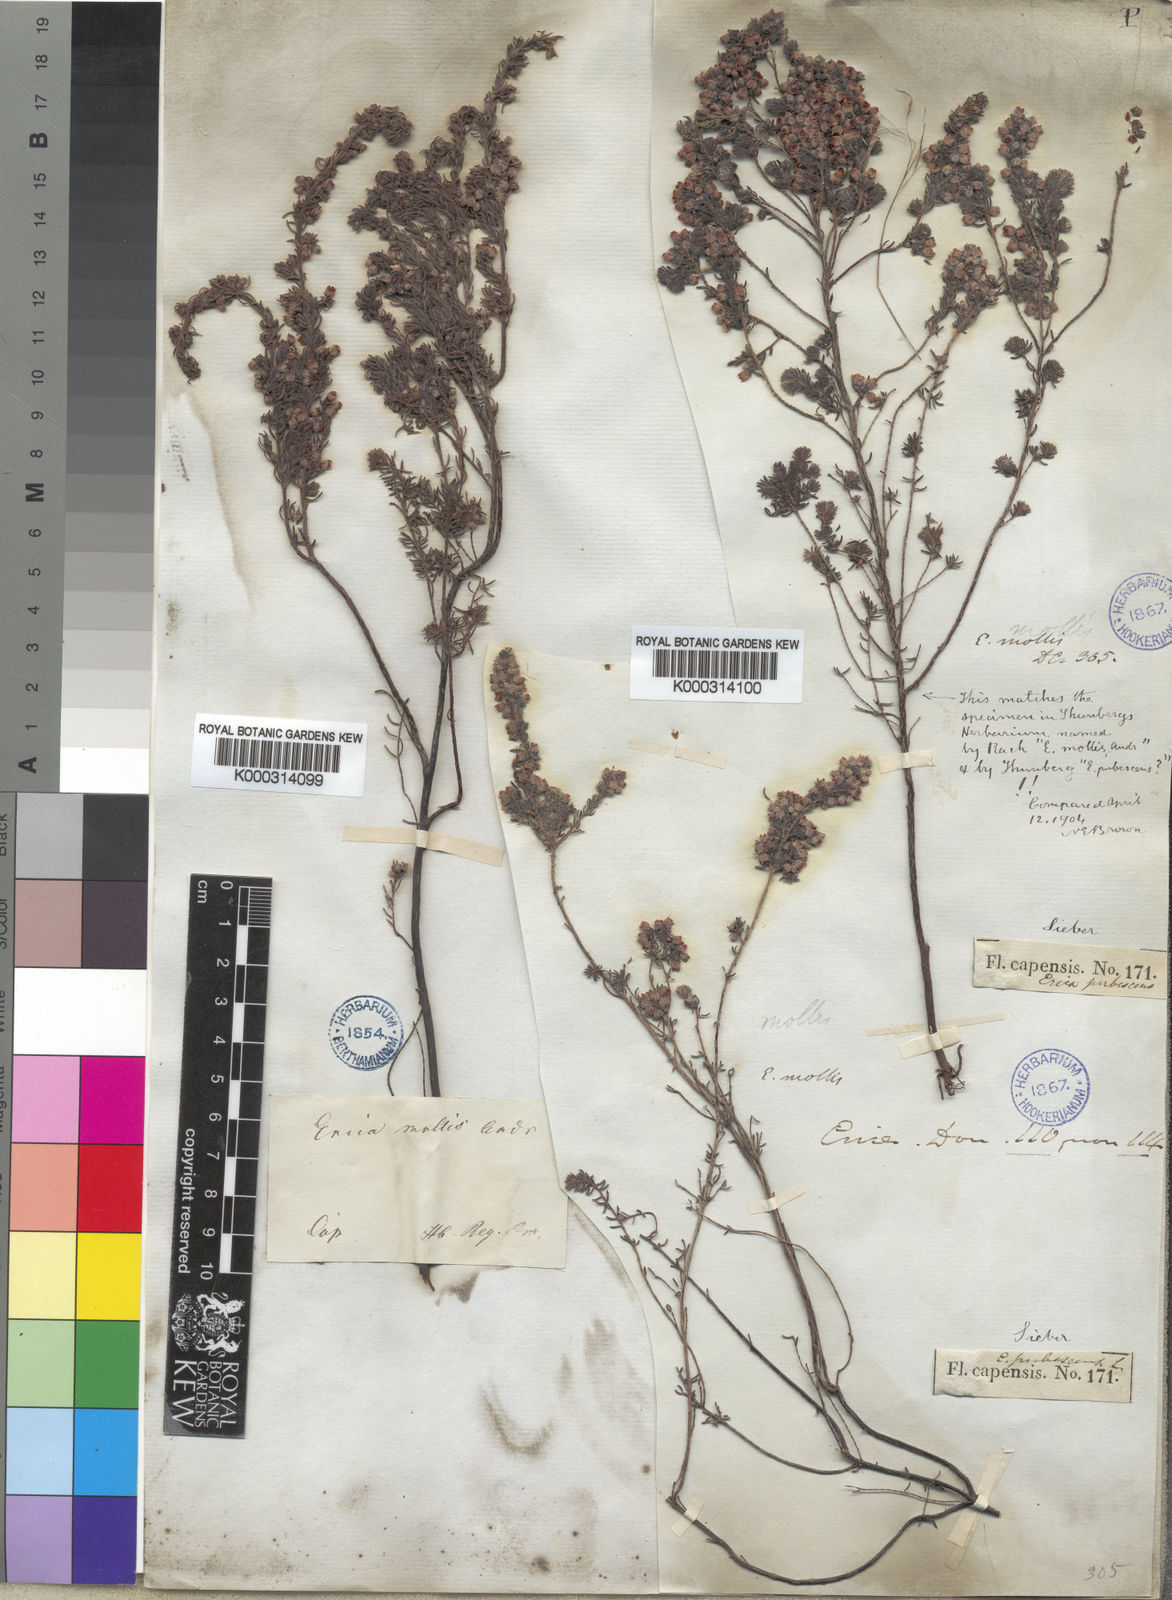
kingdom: Plantae
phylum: Tracheophyta
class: Magnoliopsida
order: Ericales
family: Ericaceae
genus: Erica
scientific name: Erica mollis
